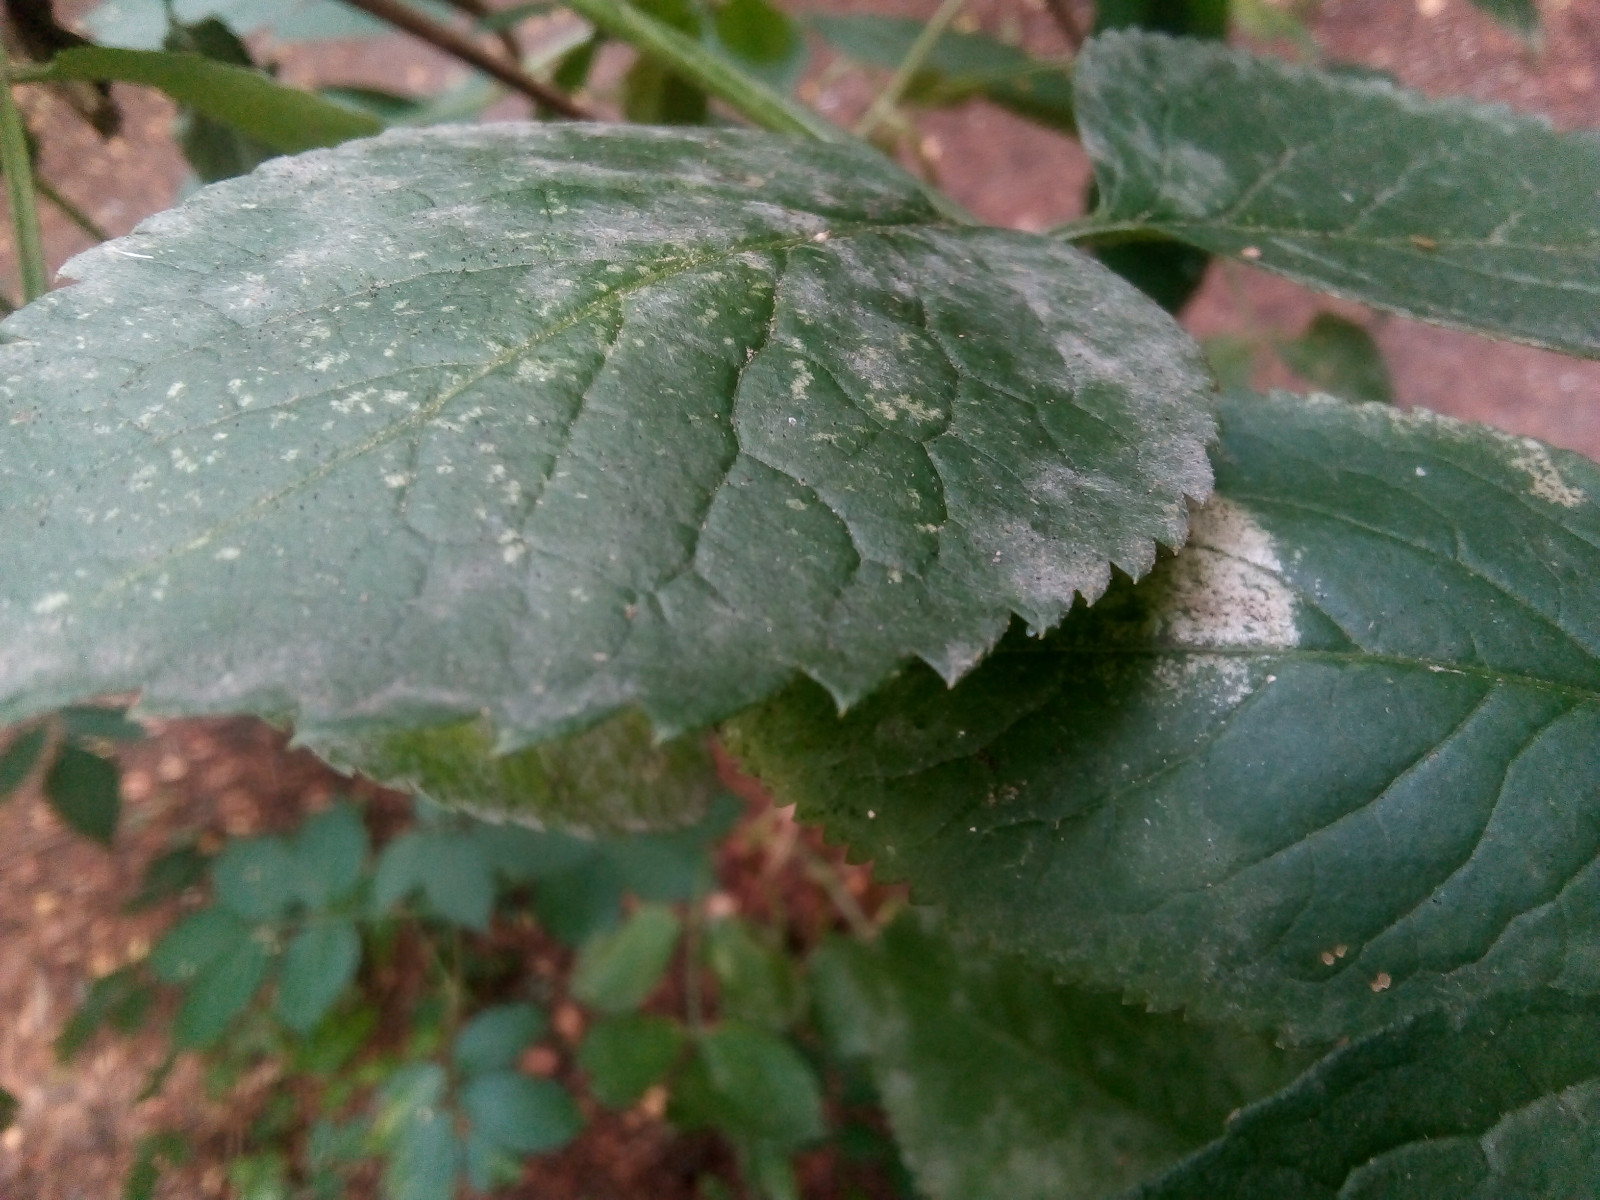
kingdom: Fungi
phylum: Ascomycota
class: Leotiomycetes
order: Helotiales
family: Erysiphaceae
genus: Erysiphe
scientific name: Erysiphe vanbruntiana
